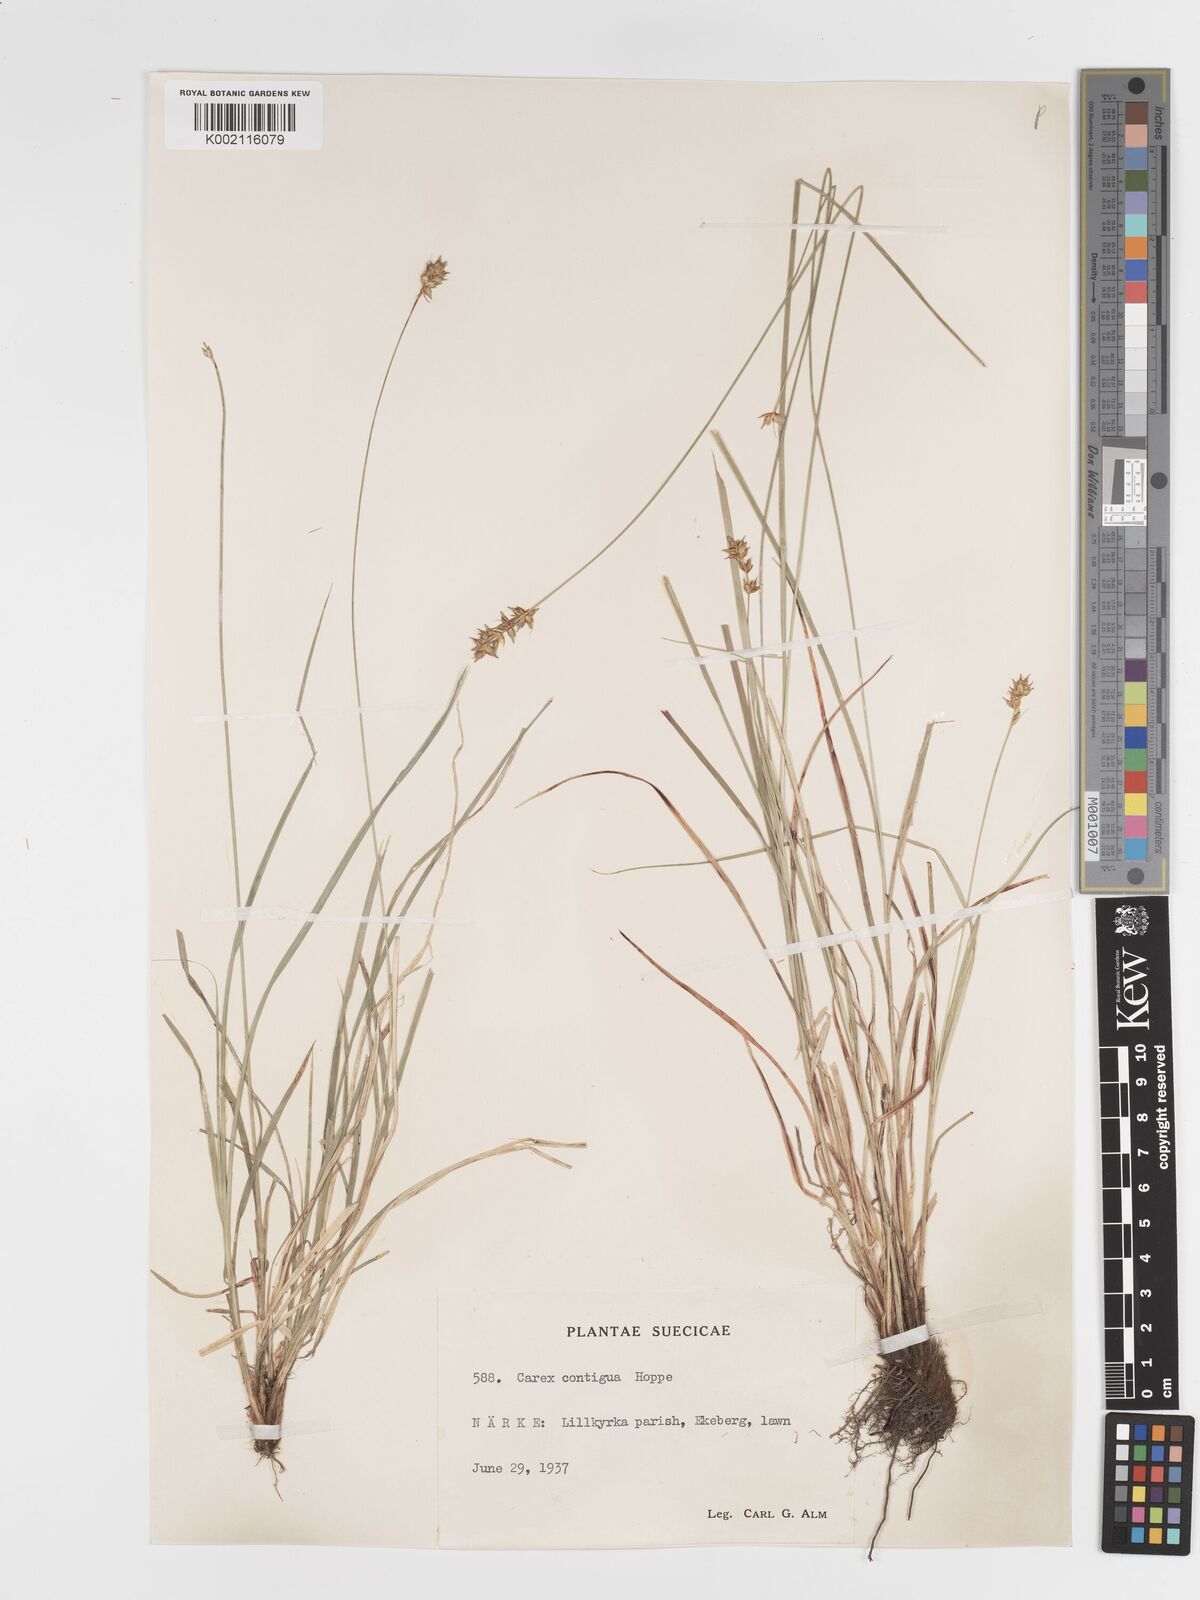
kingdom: Plantae
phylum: Tracheophyta
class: Liliopsida
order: Poales
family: Cyperaceae
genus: Carex
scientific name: Carex spicata
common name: Spiked sedge
